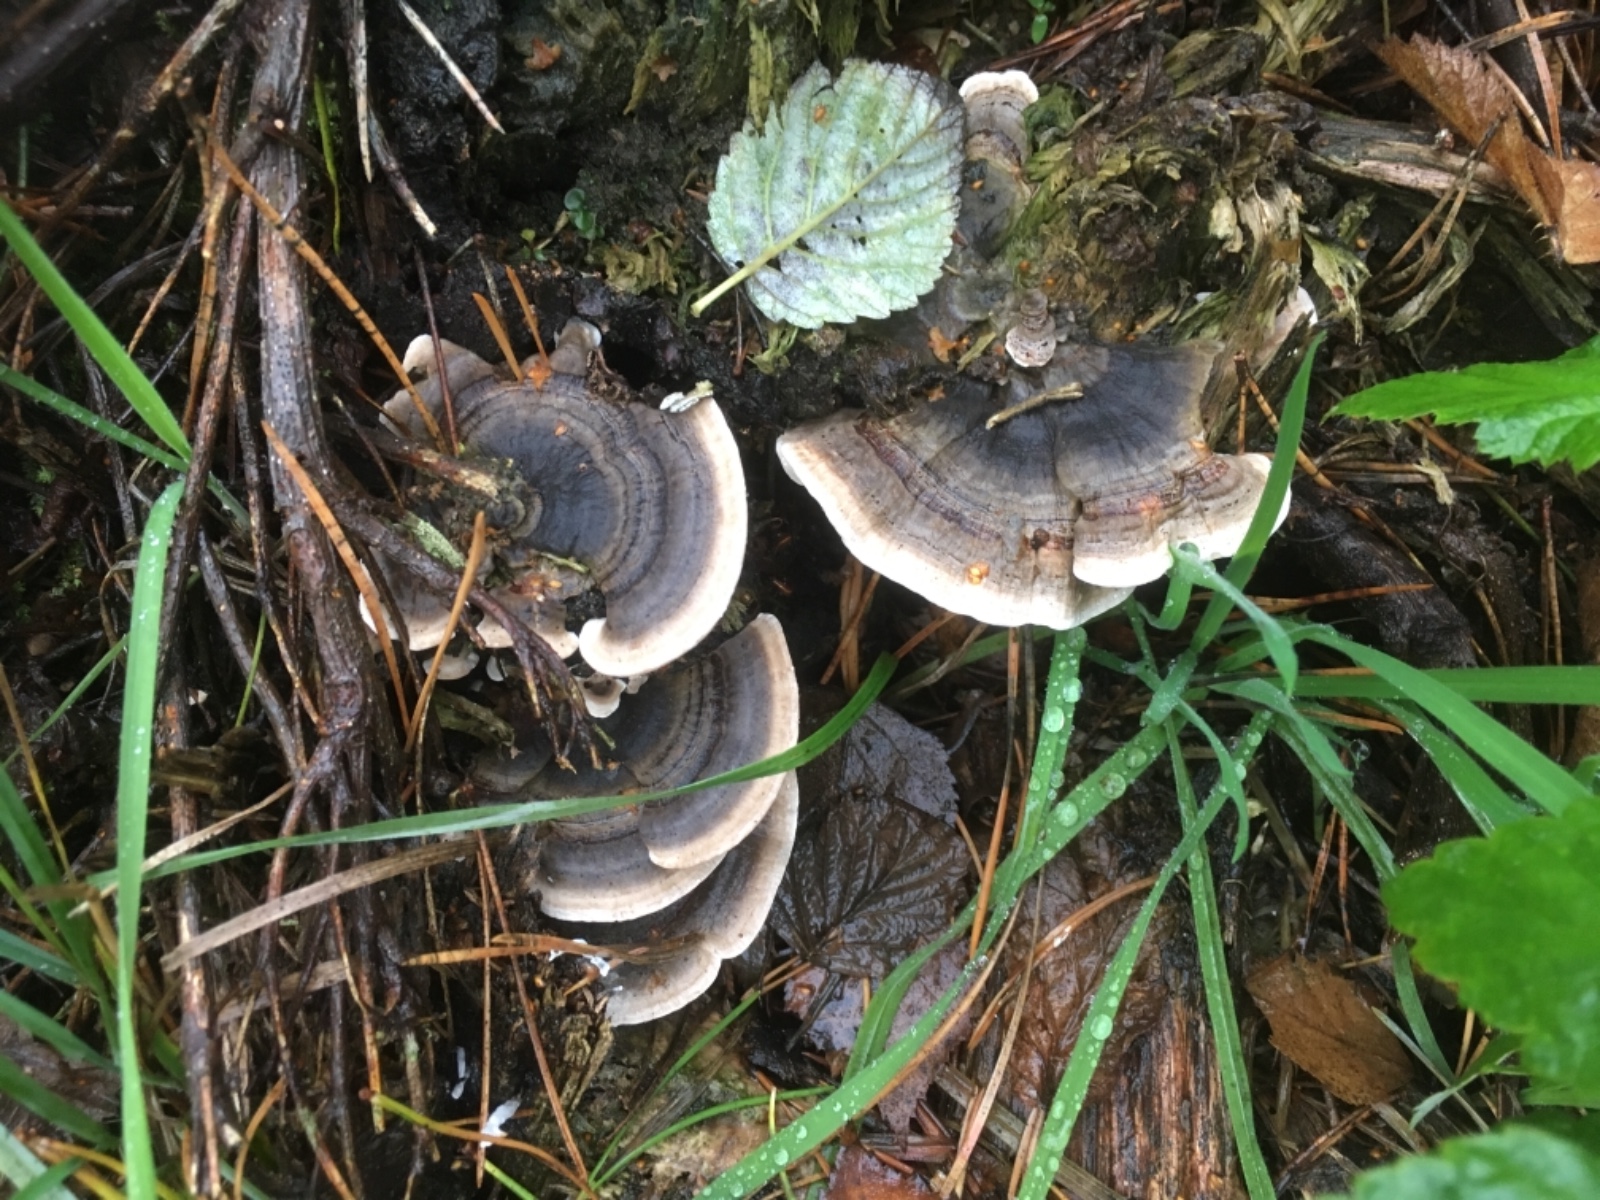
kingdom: Fungi
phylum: Basidiomycota
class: Agaricomycetes
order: Polyporales
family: Polyporaceae
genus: Trametes
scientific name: Trametes versicolor
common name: broget læderporesvamp
